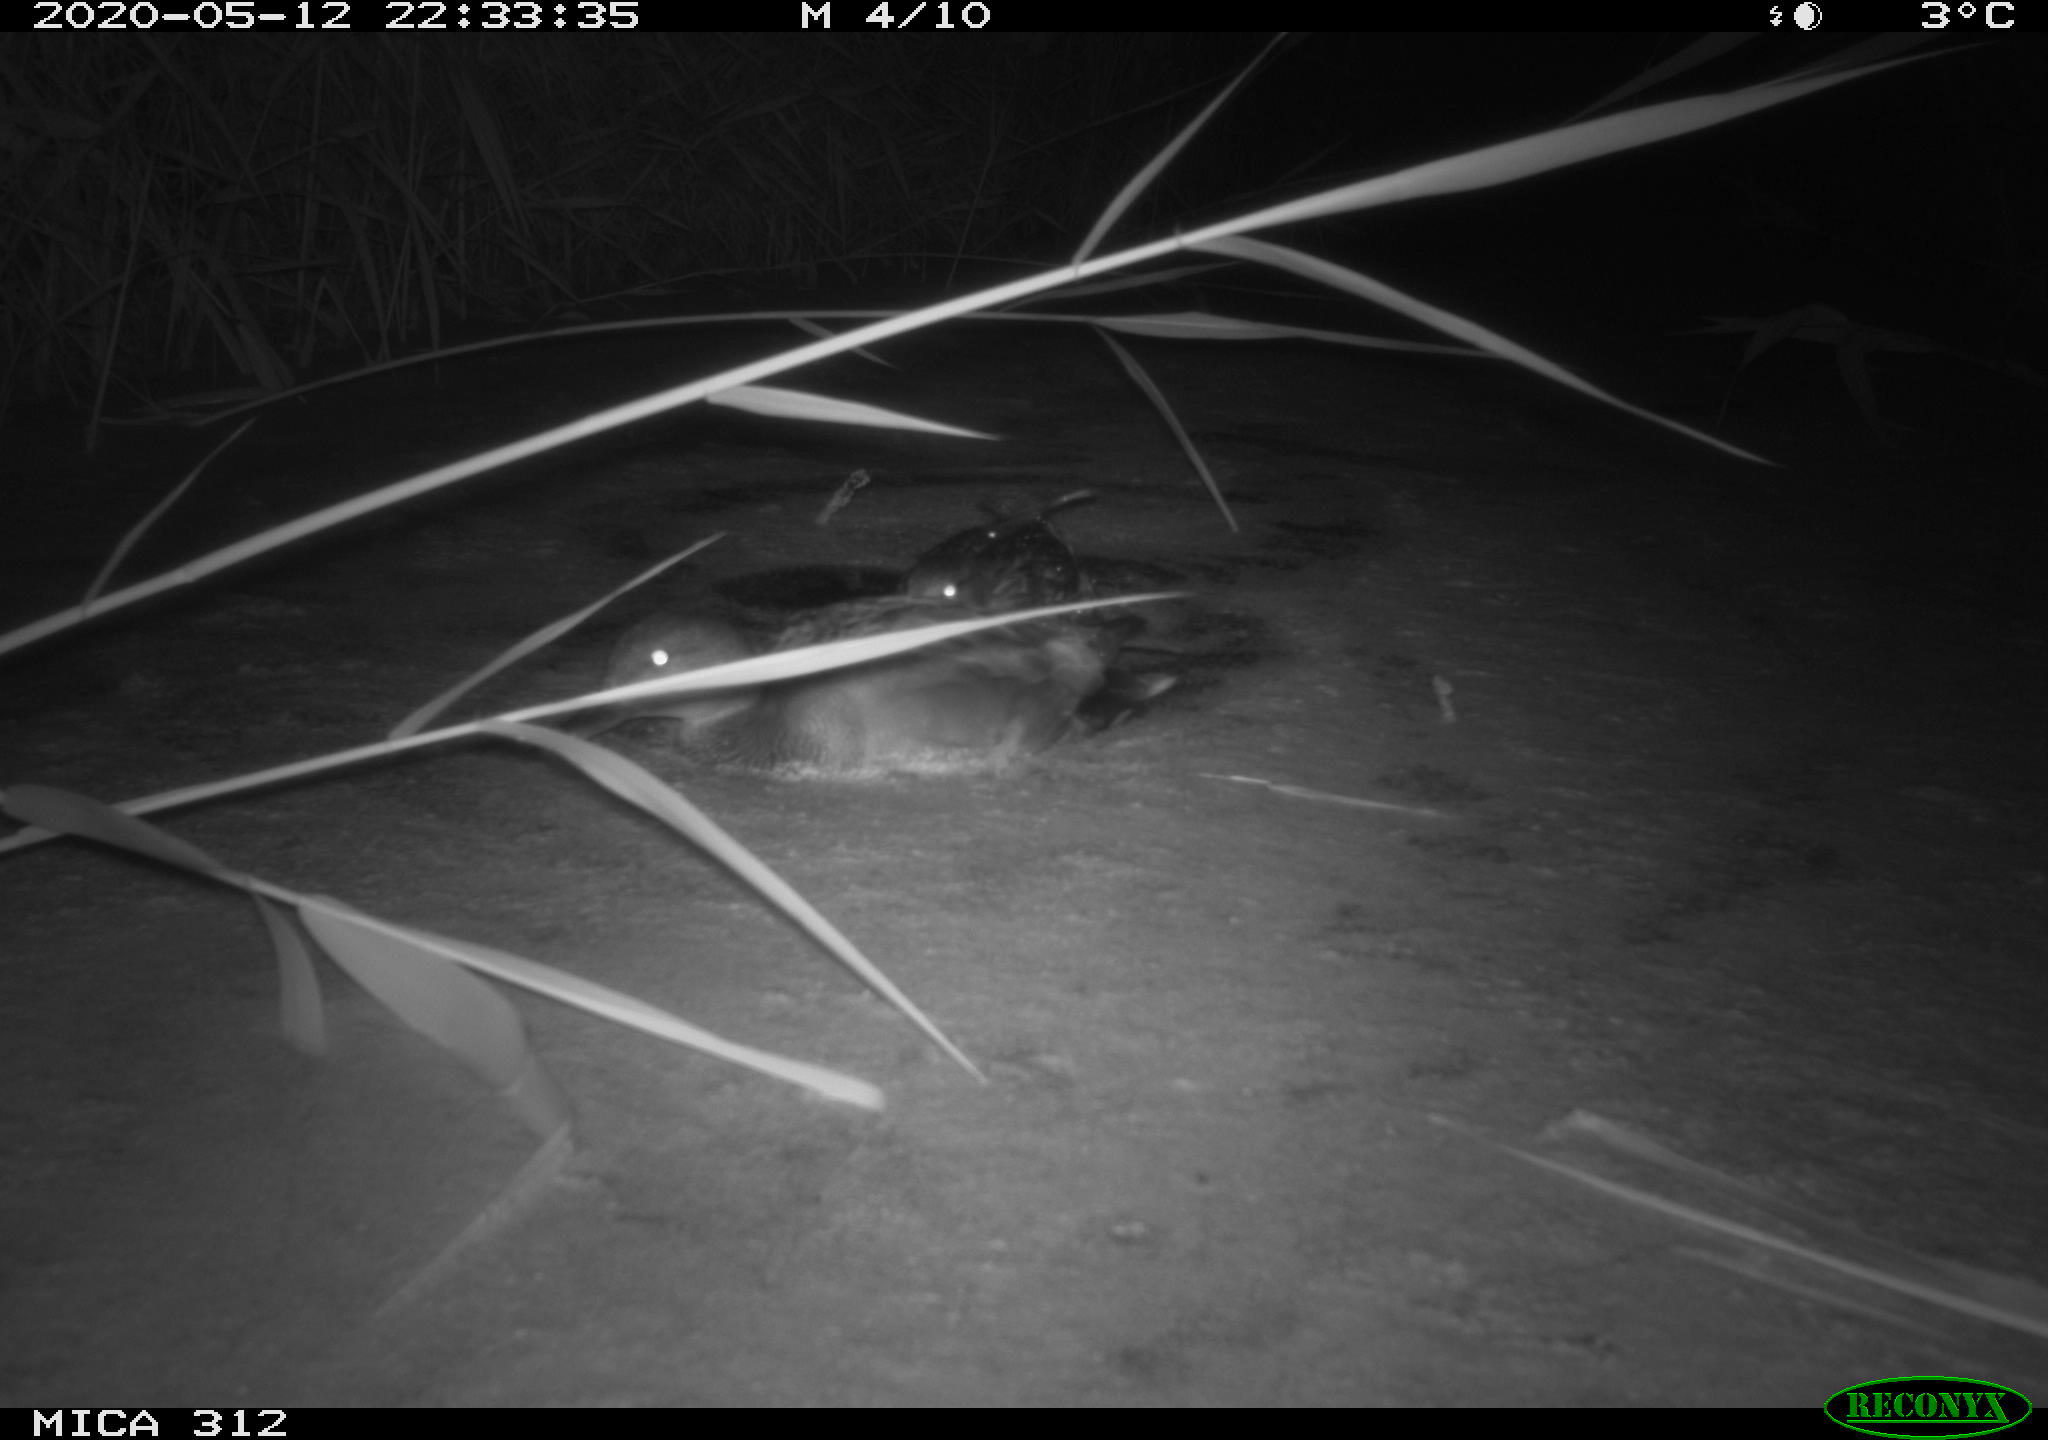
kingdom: Animalia
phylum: Chordata
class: Aves
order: Anseriformes
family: Anatidae
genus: Anas
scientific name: Anas platyrhynchos
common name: Mallard
